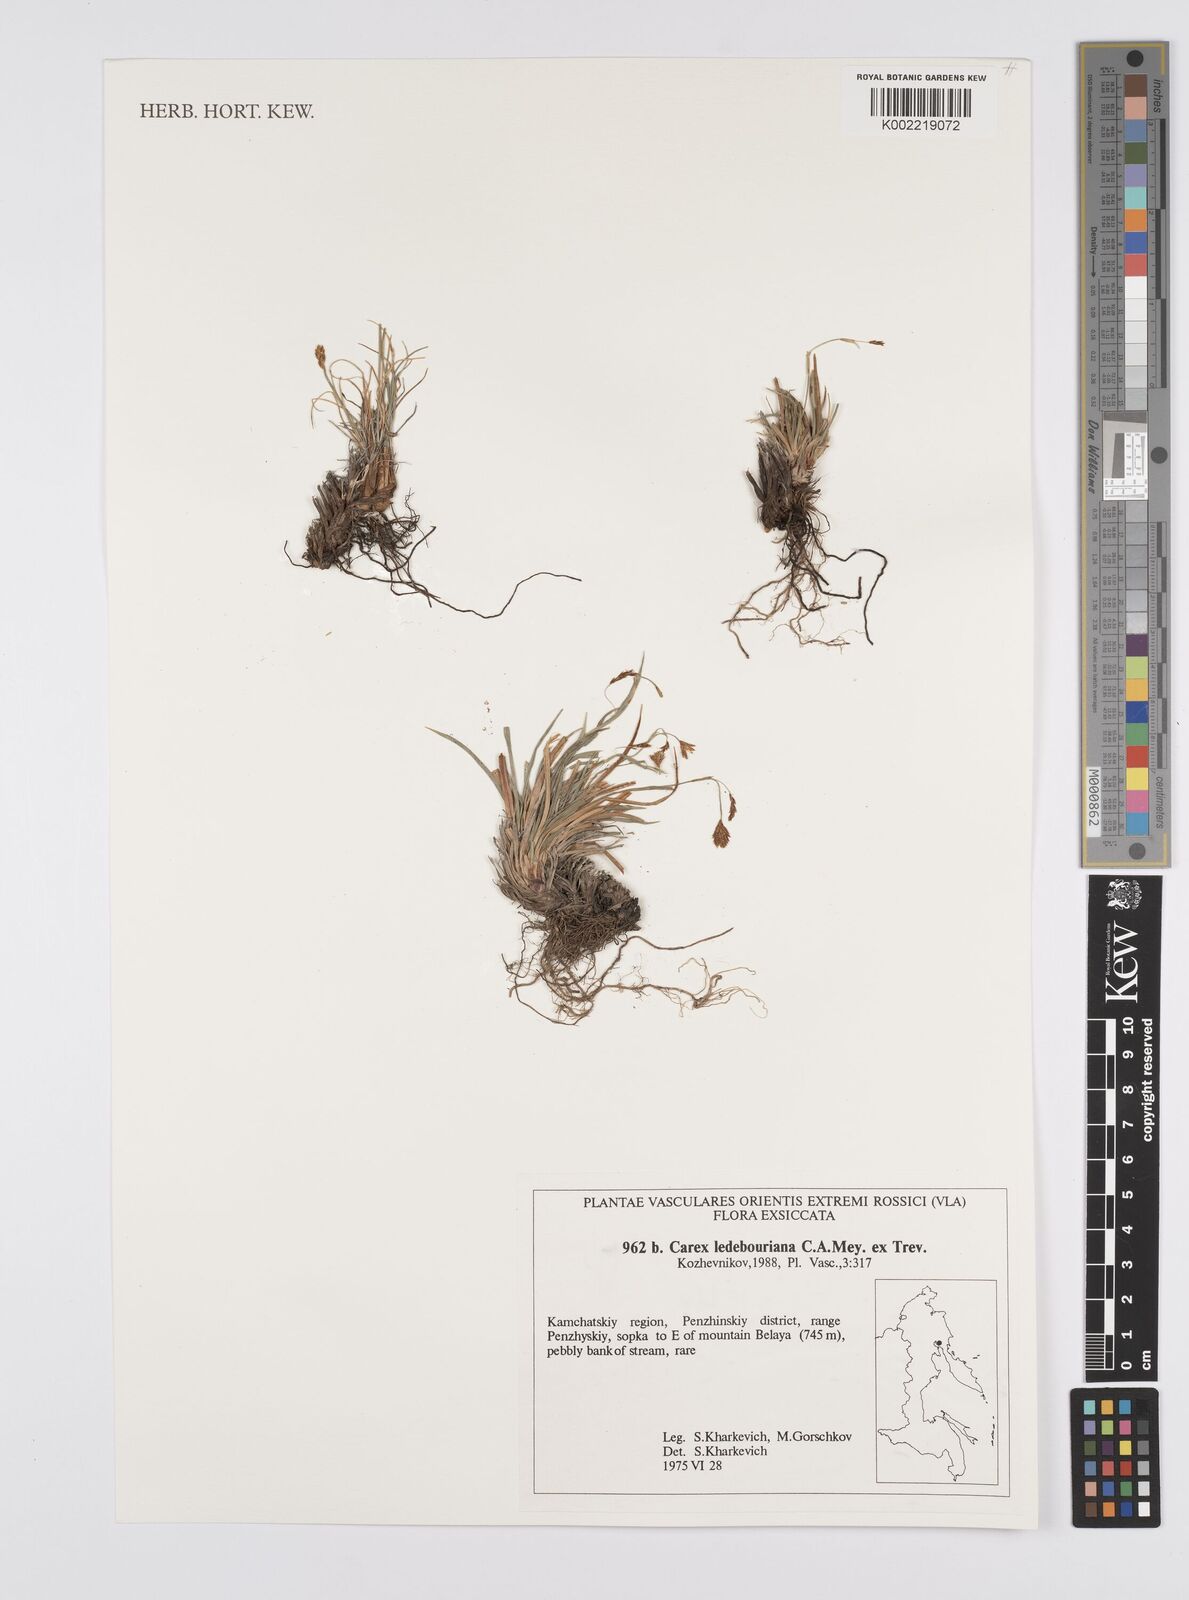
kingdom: Plantae
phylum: Tracheophyta
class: Liliopsida
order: Poales
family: Cyperaceae
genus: Carex
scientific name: Carex ledebouriana
